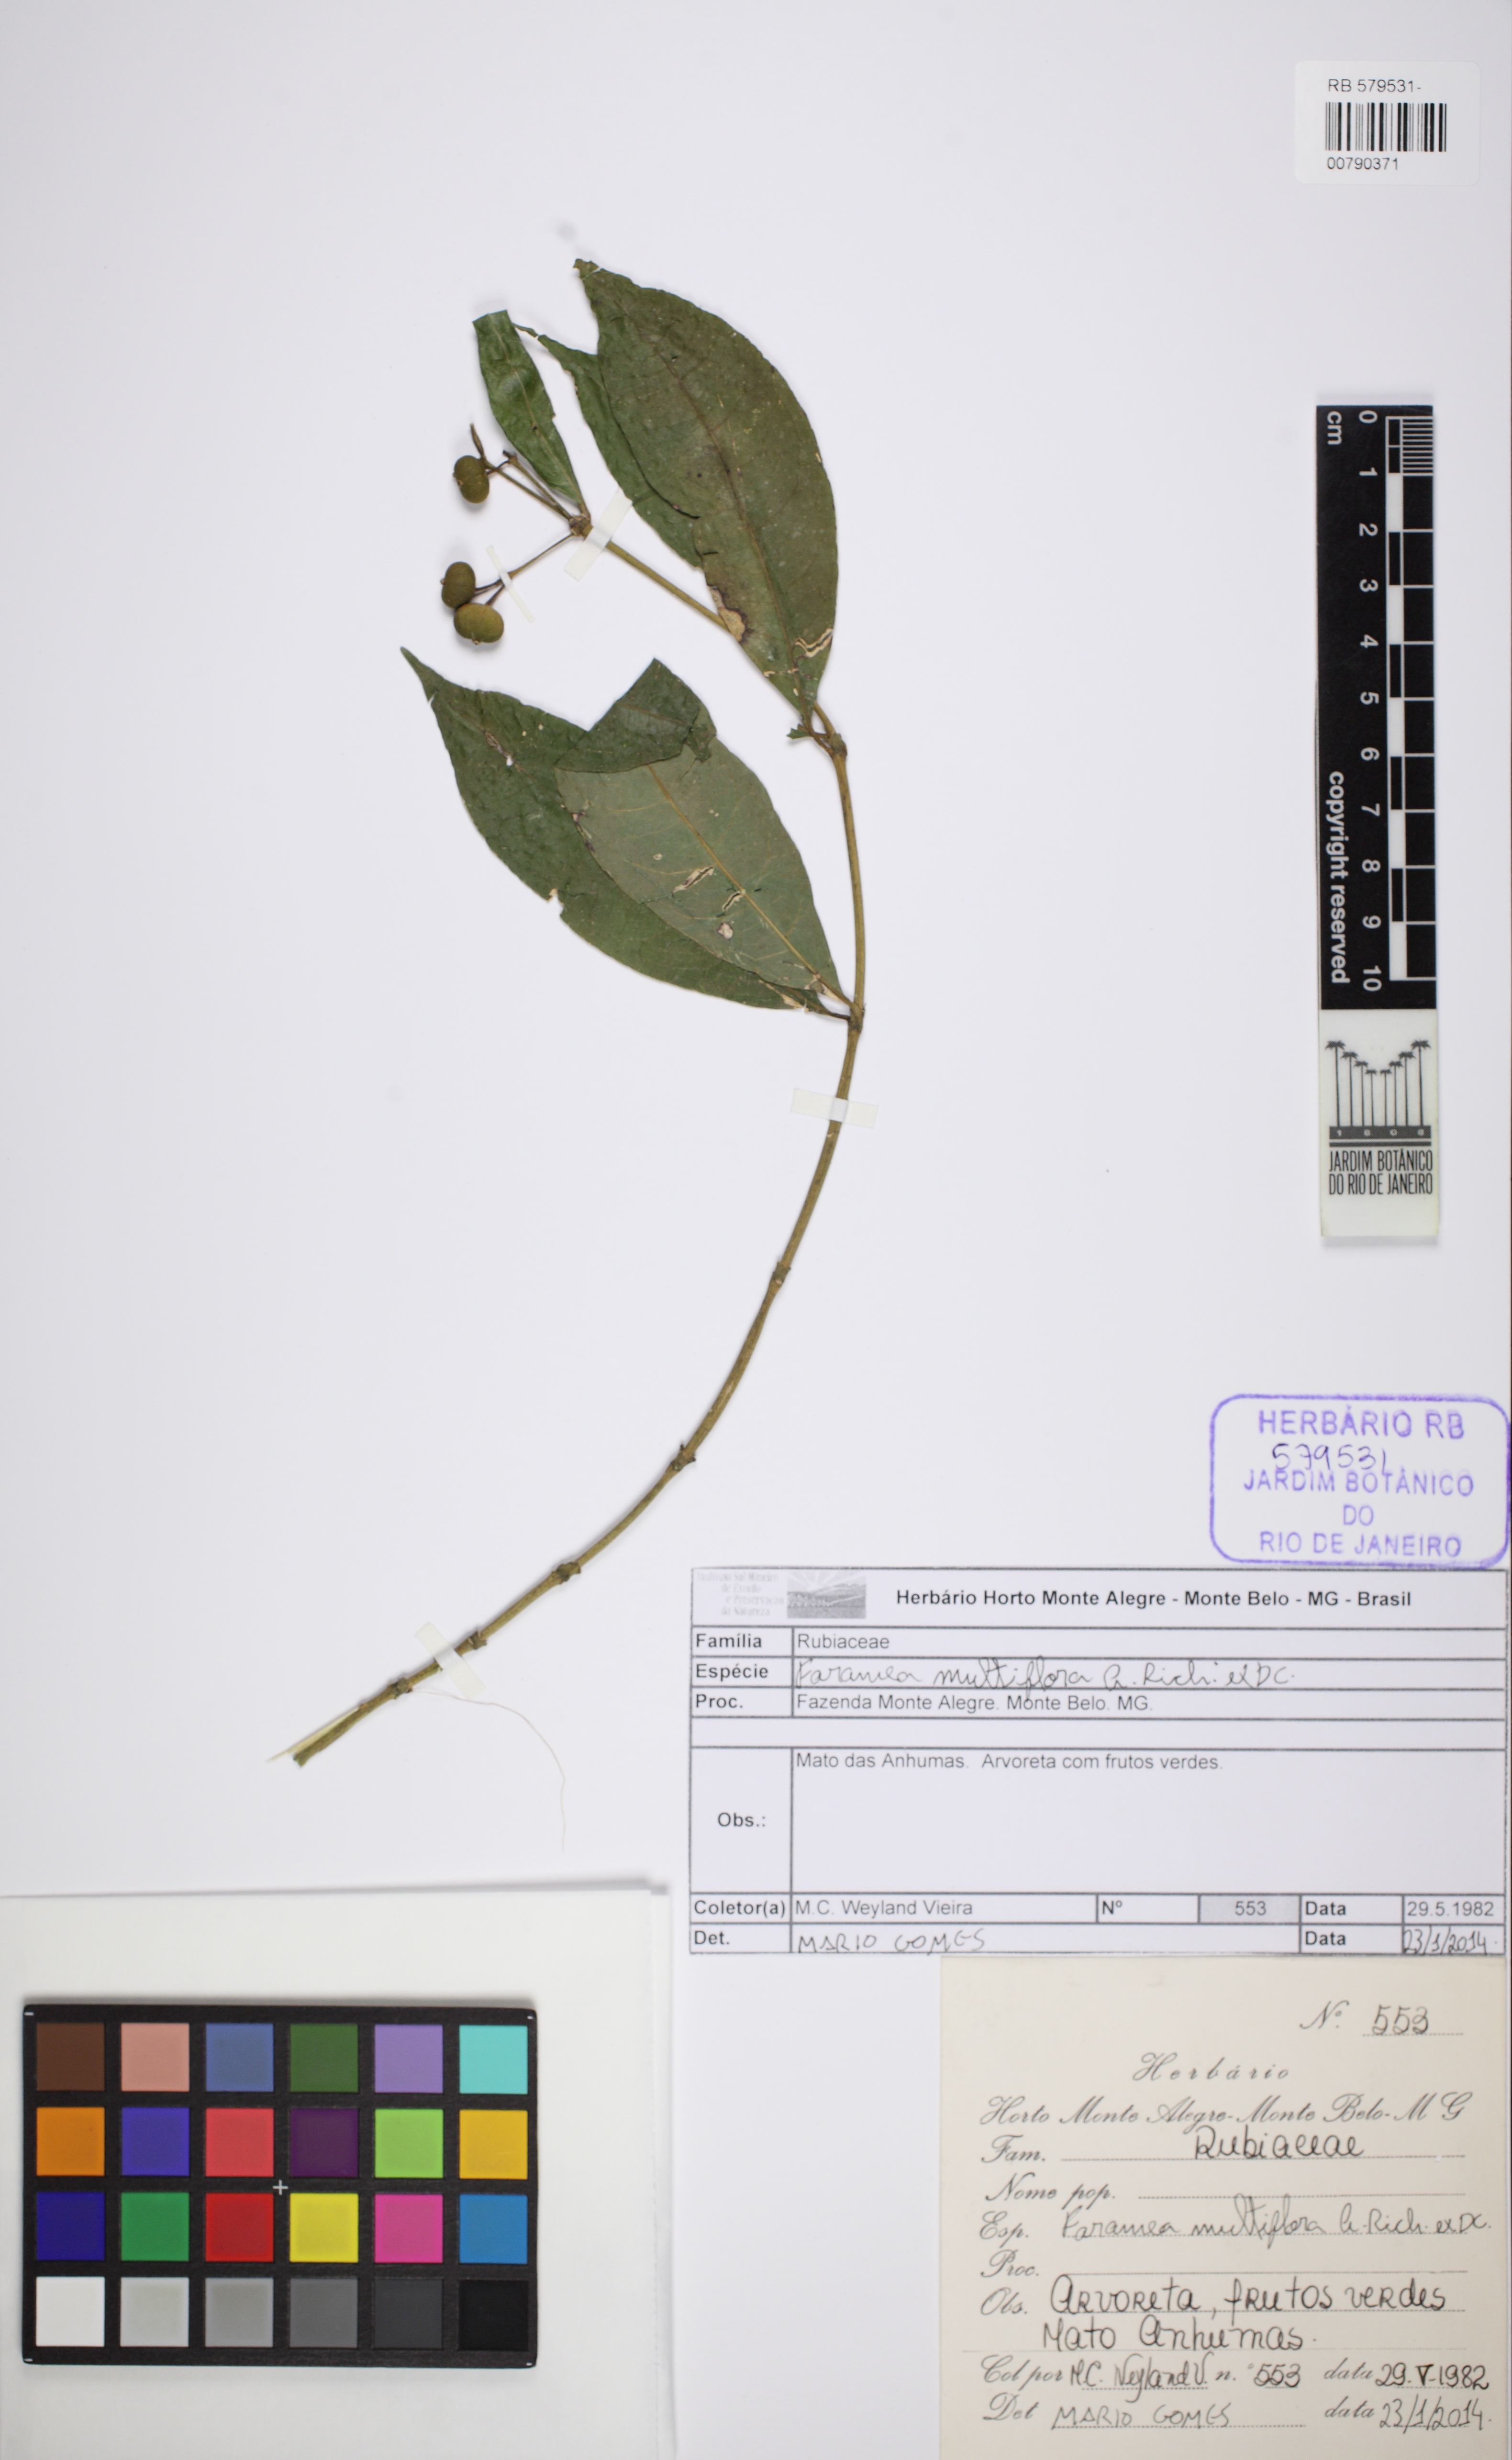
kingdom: Plantae
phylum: Tracheophyta
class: Magnoliopsida
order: Gentianales
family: Rubiaceae
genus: Faramea
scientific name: Faramea multiflora
